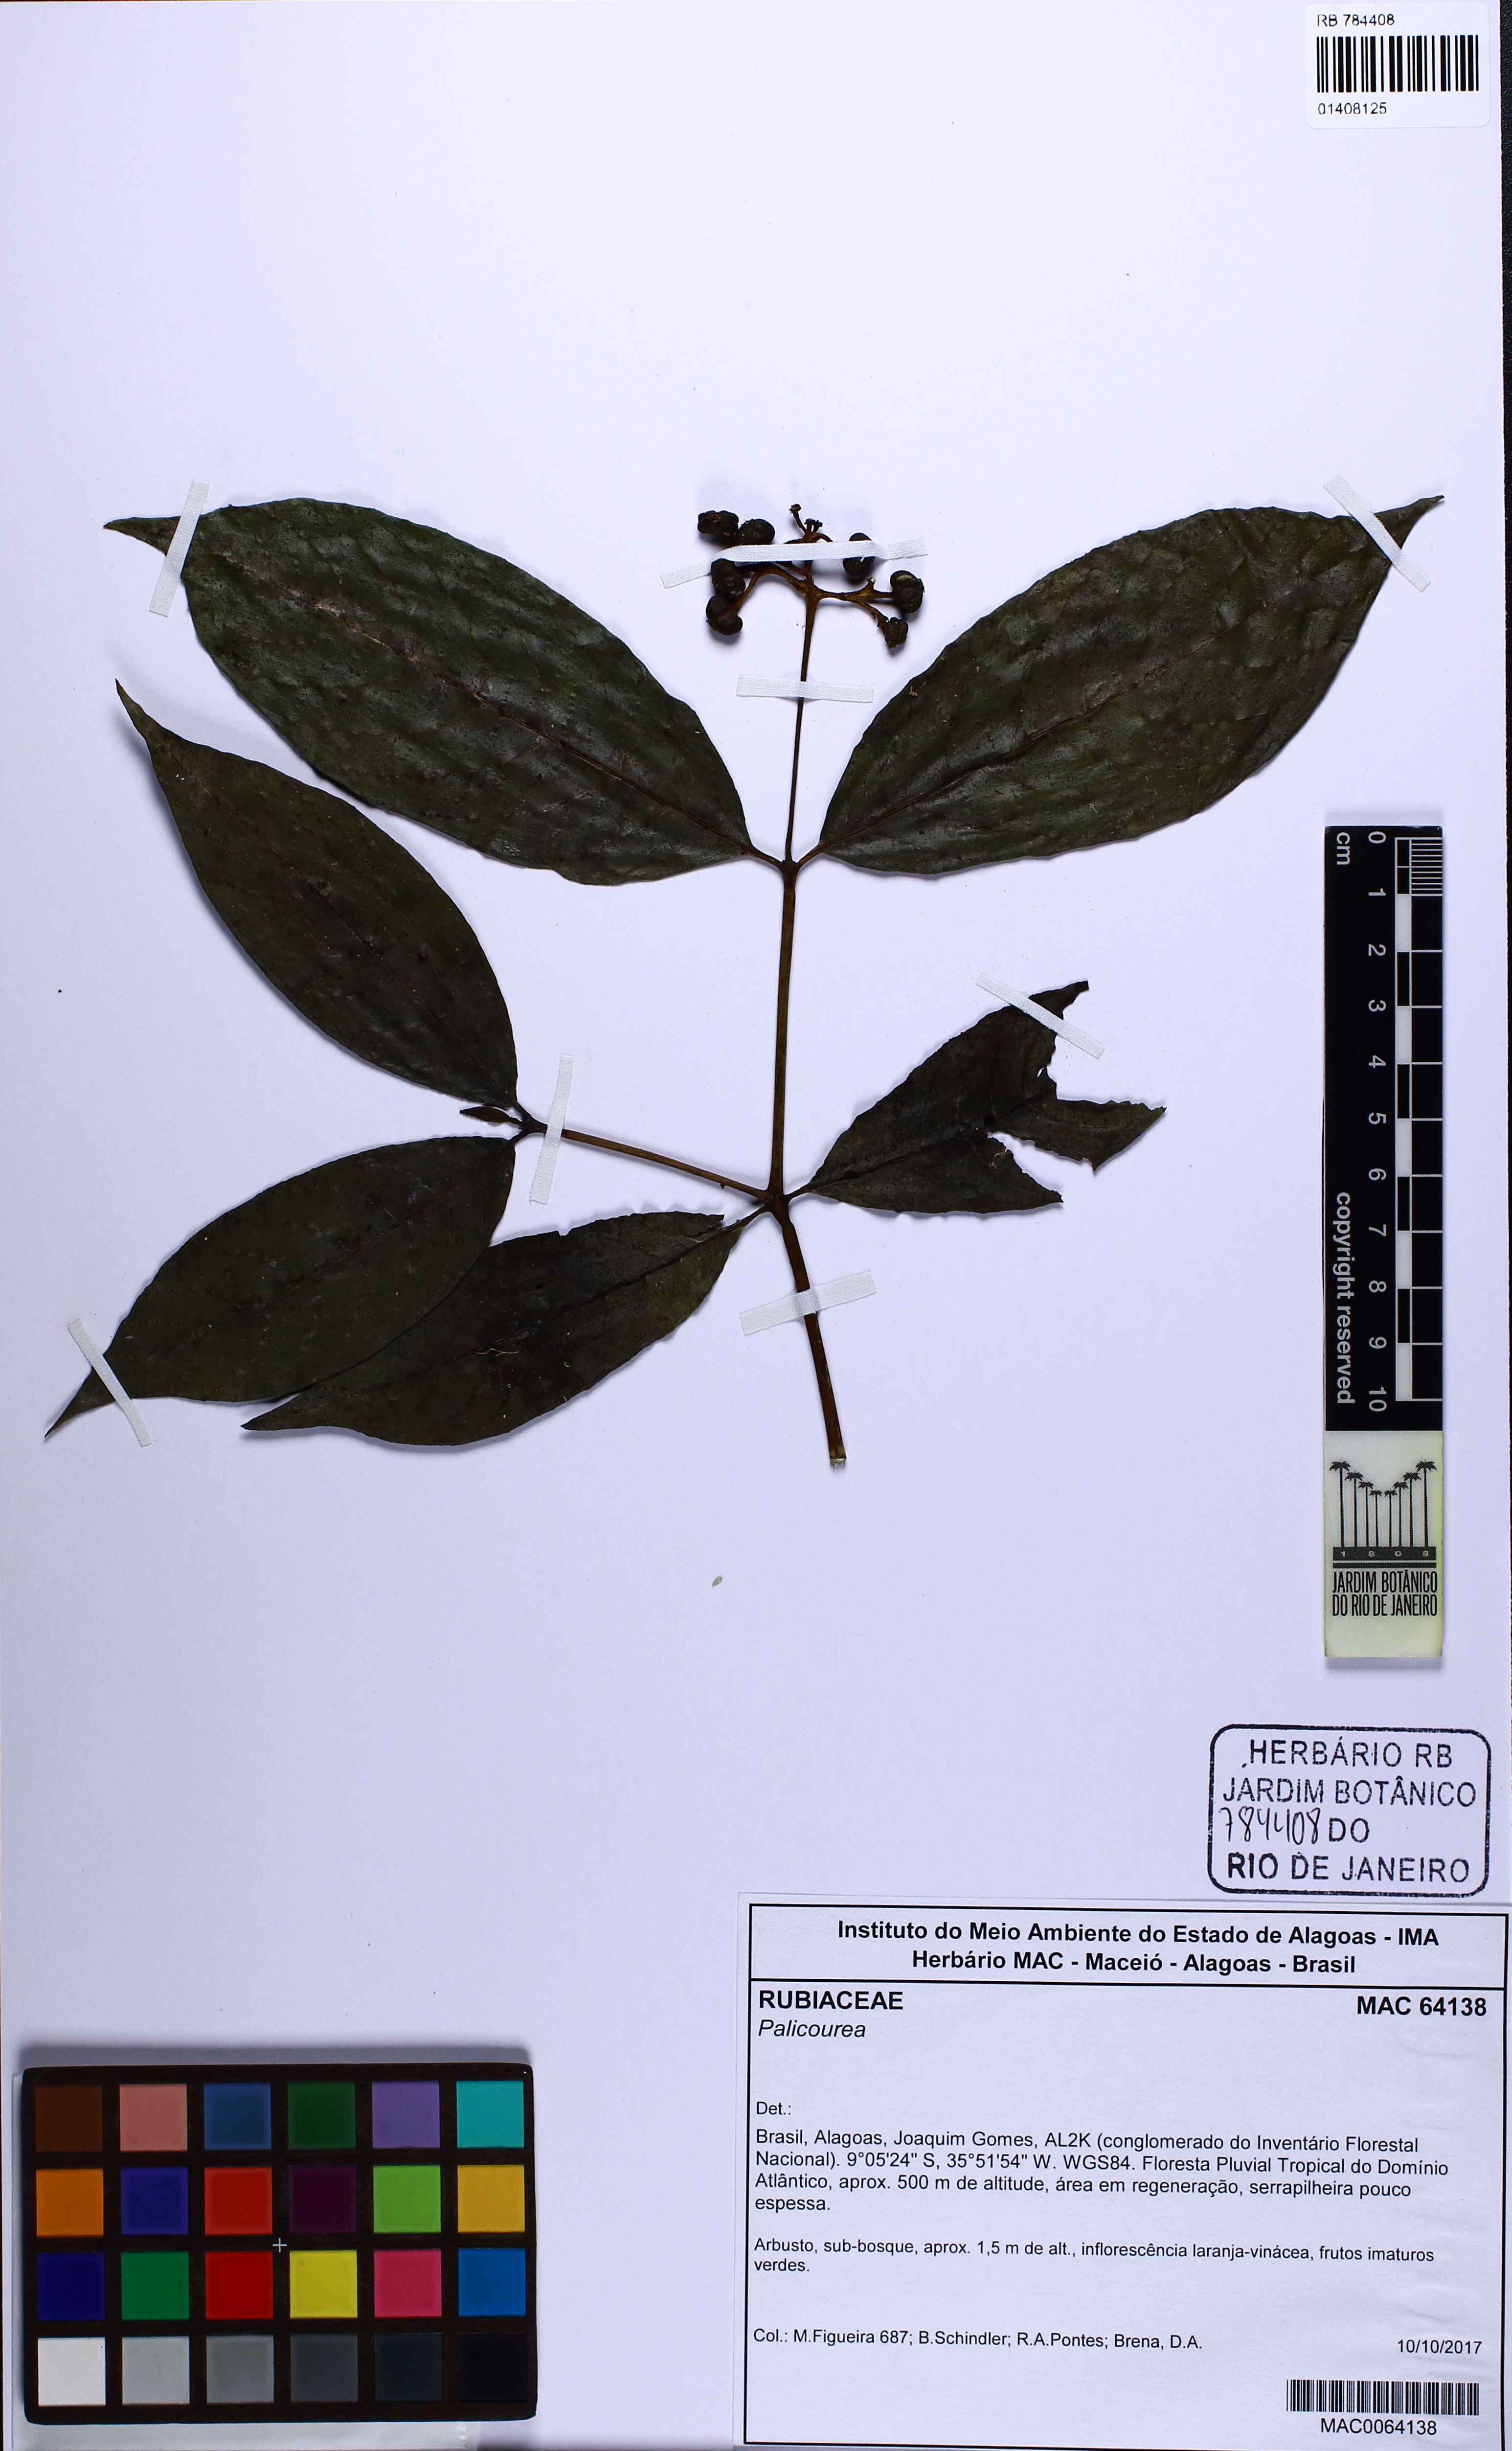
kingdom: Plantae
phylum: Tracheophyta
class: Magnoliopsida
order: Gentianales
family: Rubiaceae
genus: Palicourea
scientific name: Palicourea
